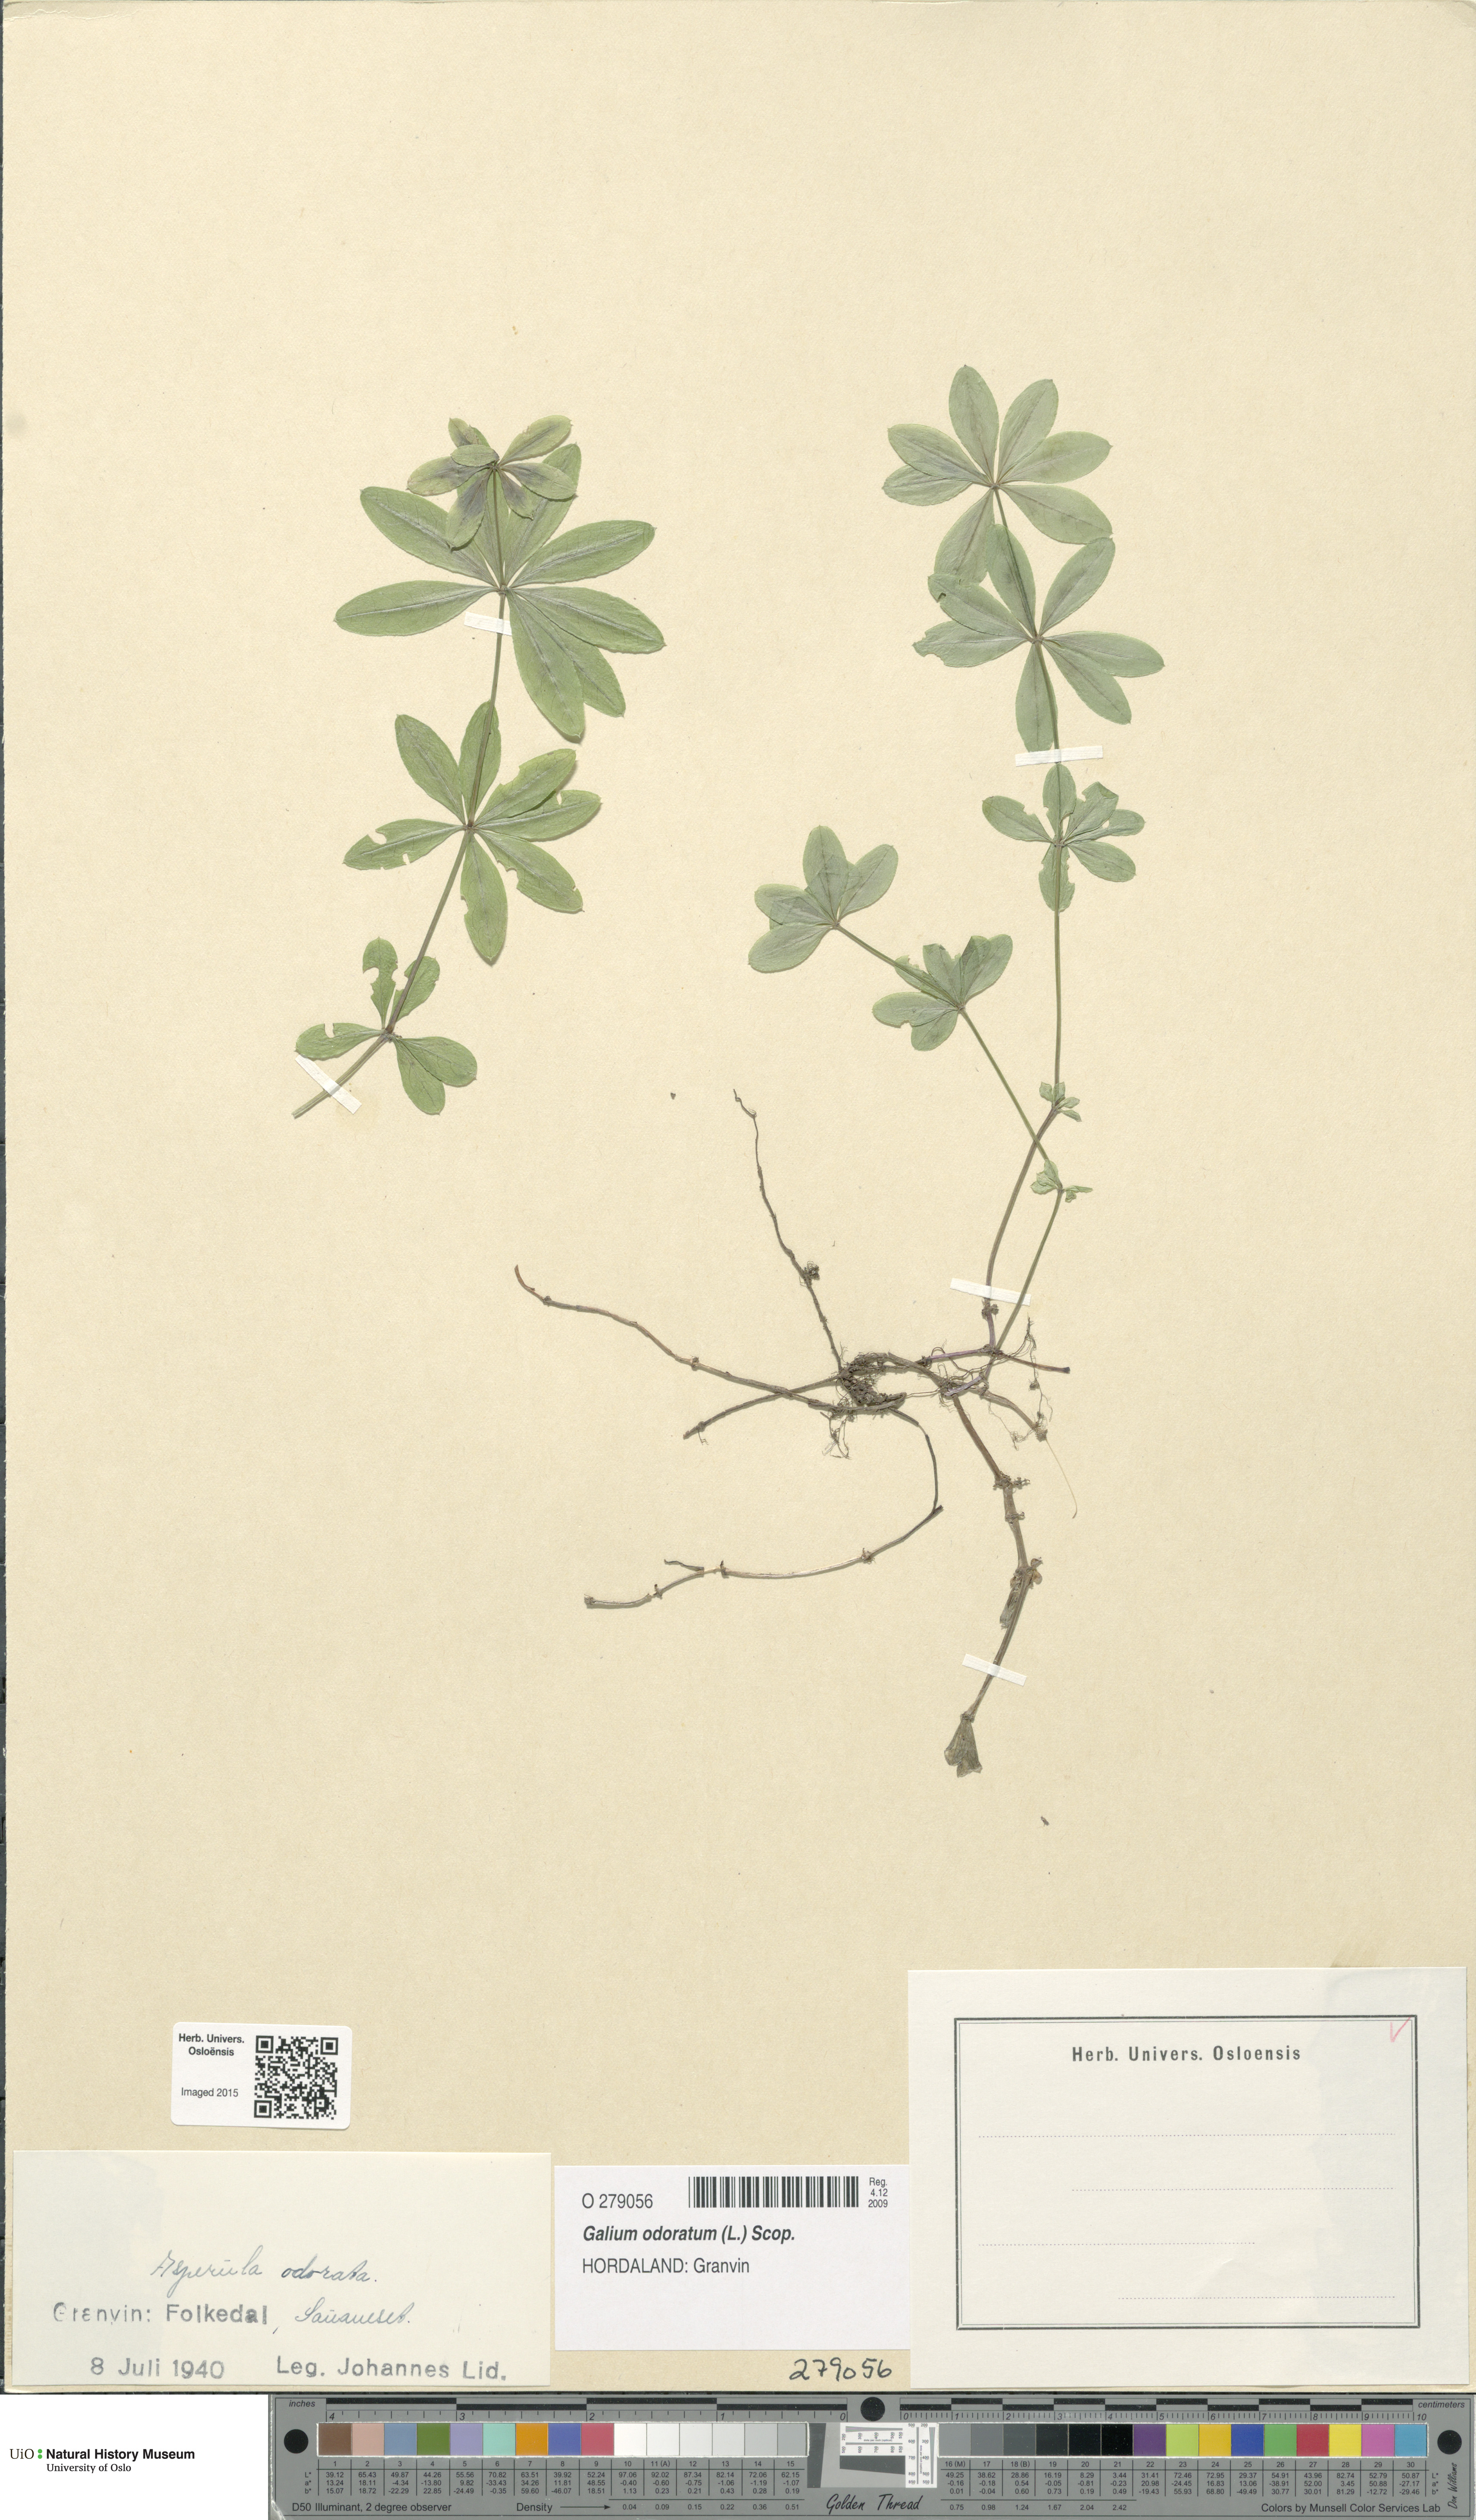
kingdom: Plantae
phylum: Tracheophyta
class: Magnoliopsida
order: Gentianales
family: Rubiaceae
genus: Galium
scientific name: Galium odoratum
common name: Sweet woodruff
